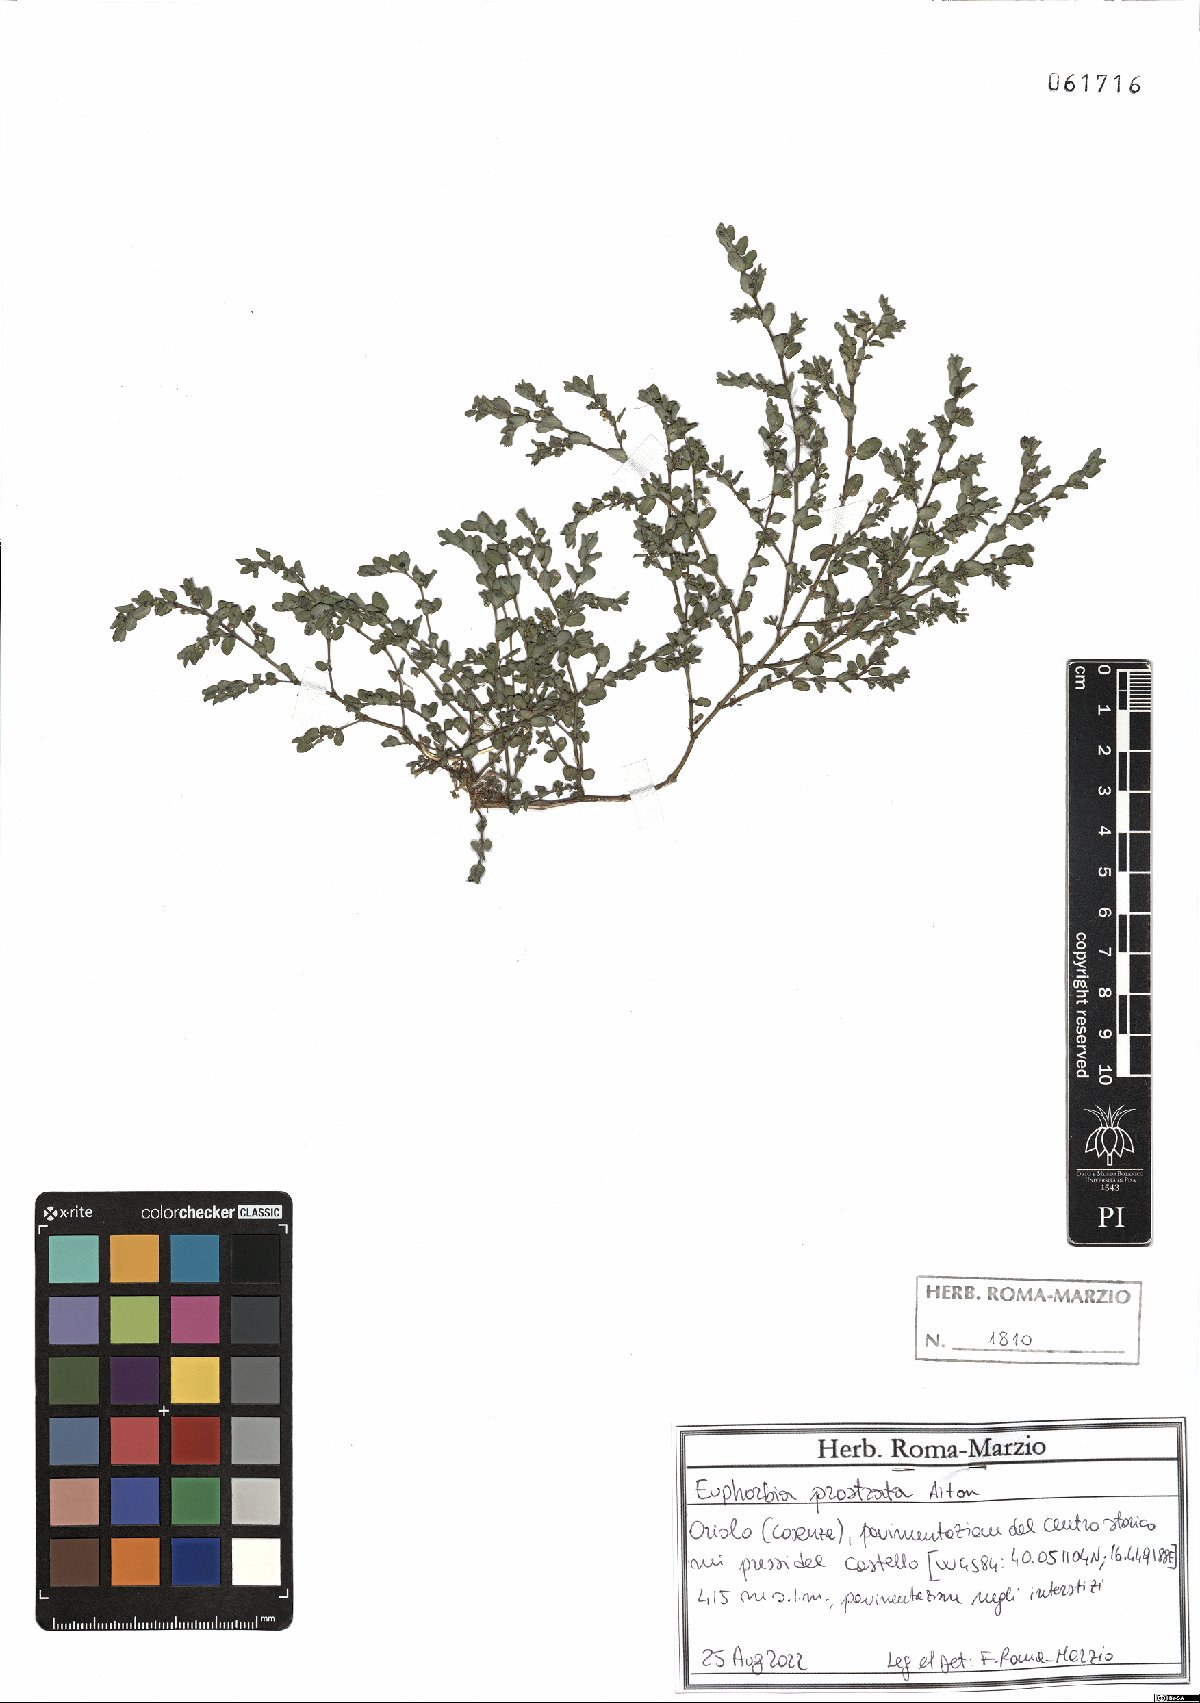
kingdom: Plantae
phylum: Tracheophyta
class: Magnoliopsida
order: Malpighiales
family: Euphorbiaceae
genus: Euphorbia
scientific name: Euphorbia prostrata
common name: Prostrate sandmat
